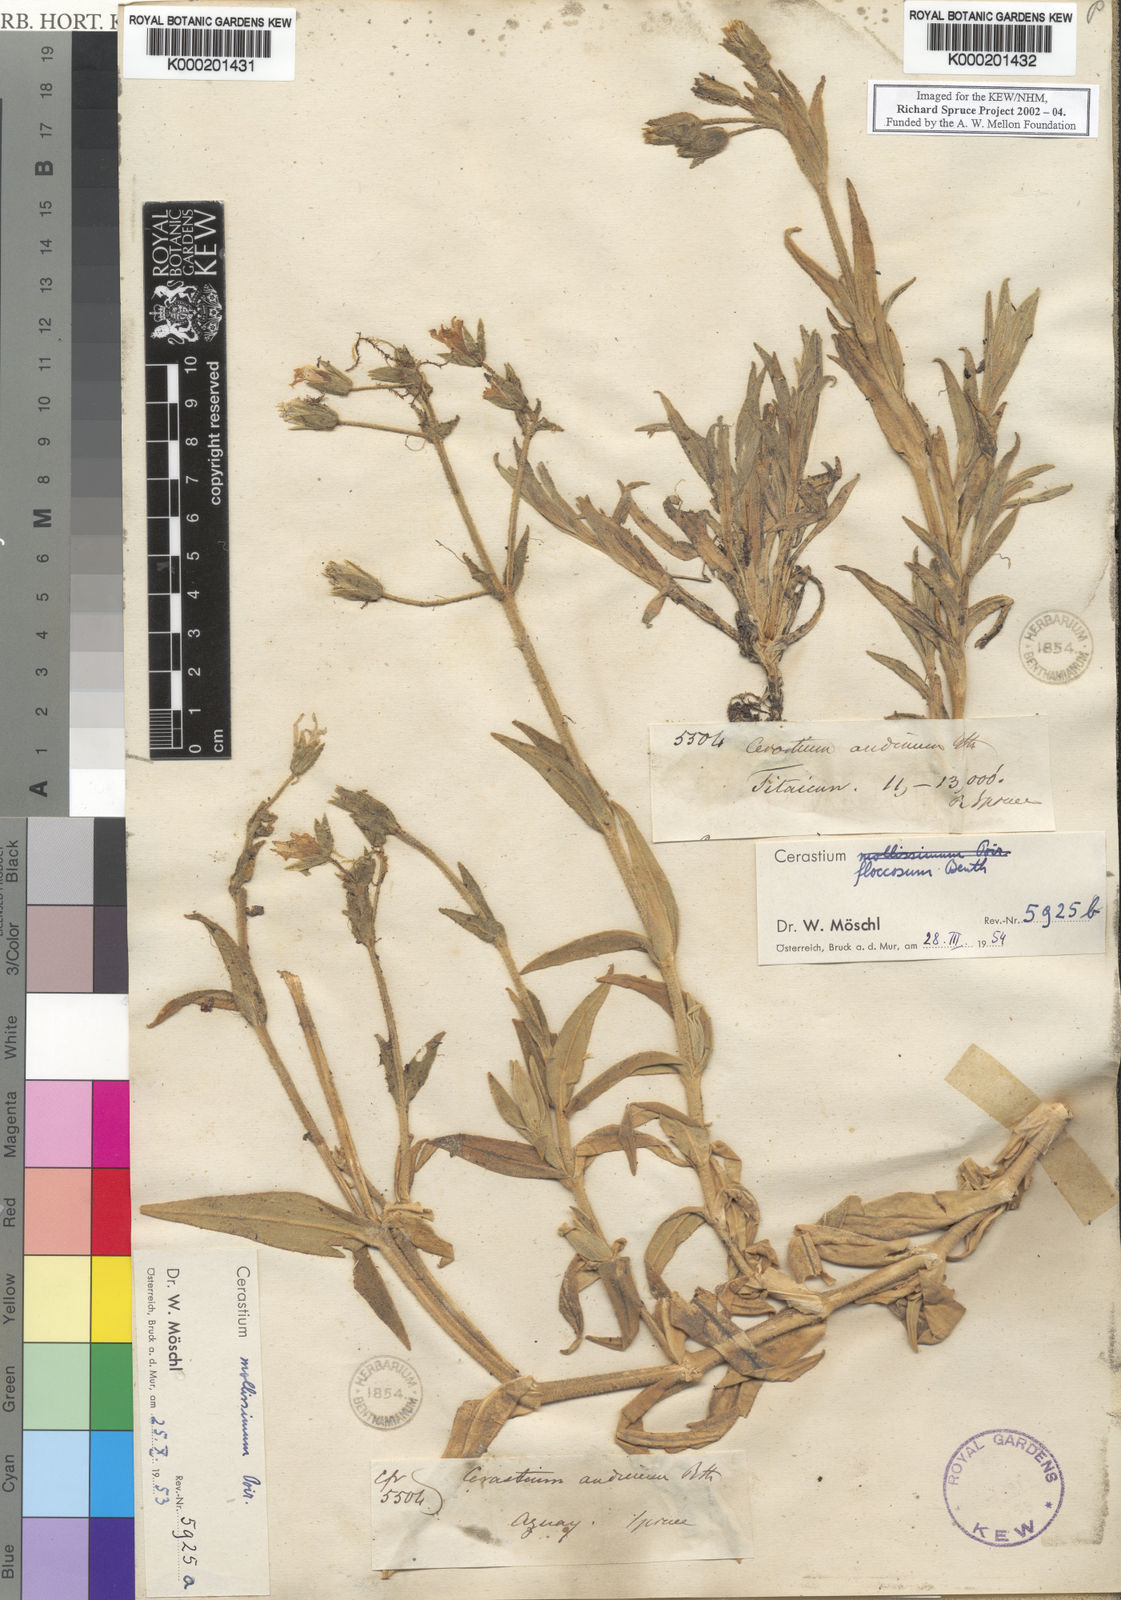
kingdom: Plantae
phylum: Tracheophyta
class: Magnoliopsida
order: Caryophyllales
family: Caryophyllaceae
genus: Cerastium
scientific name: Cerastium floccosum
